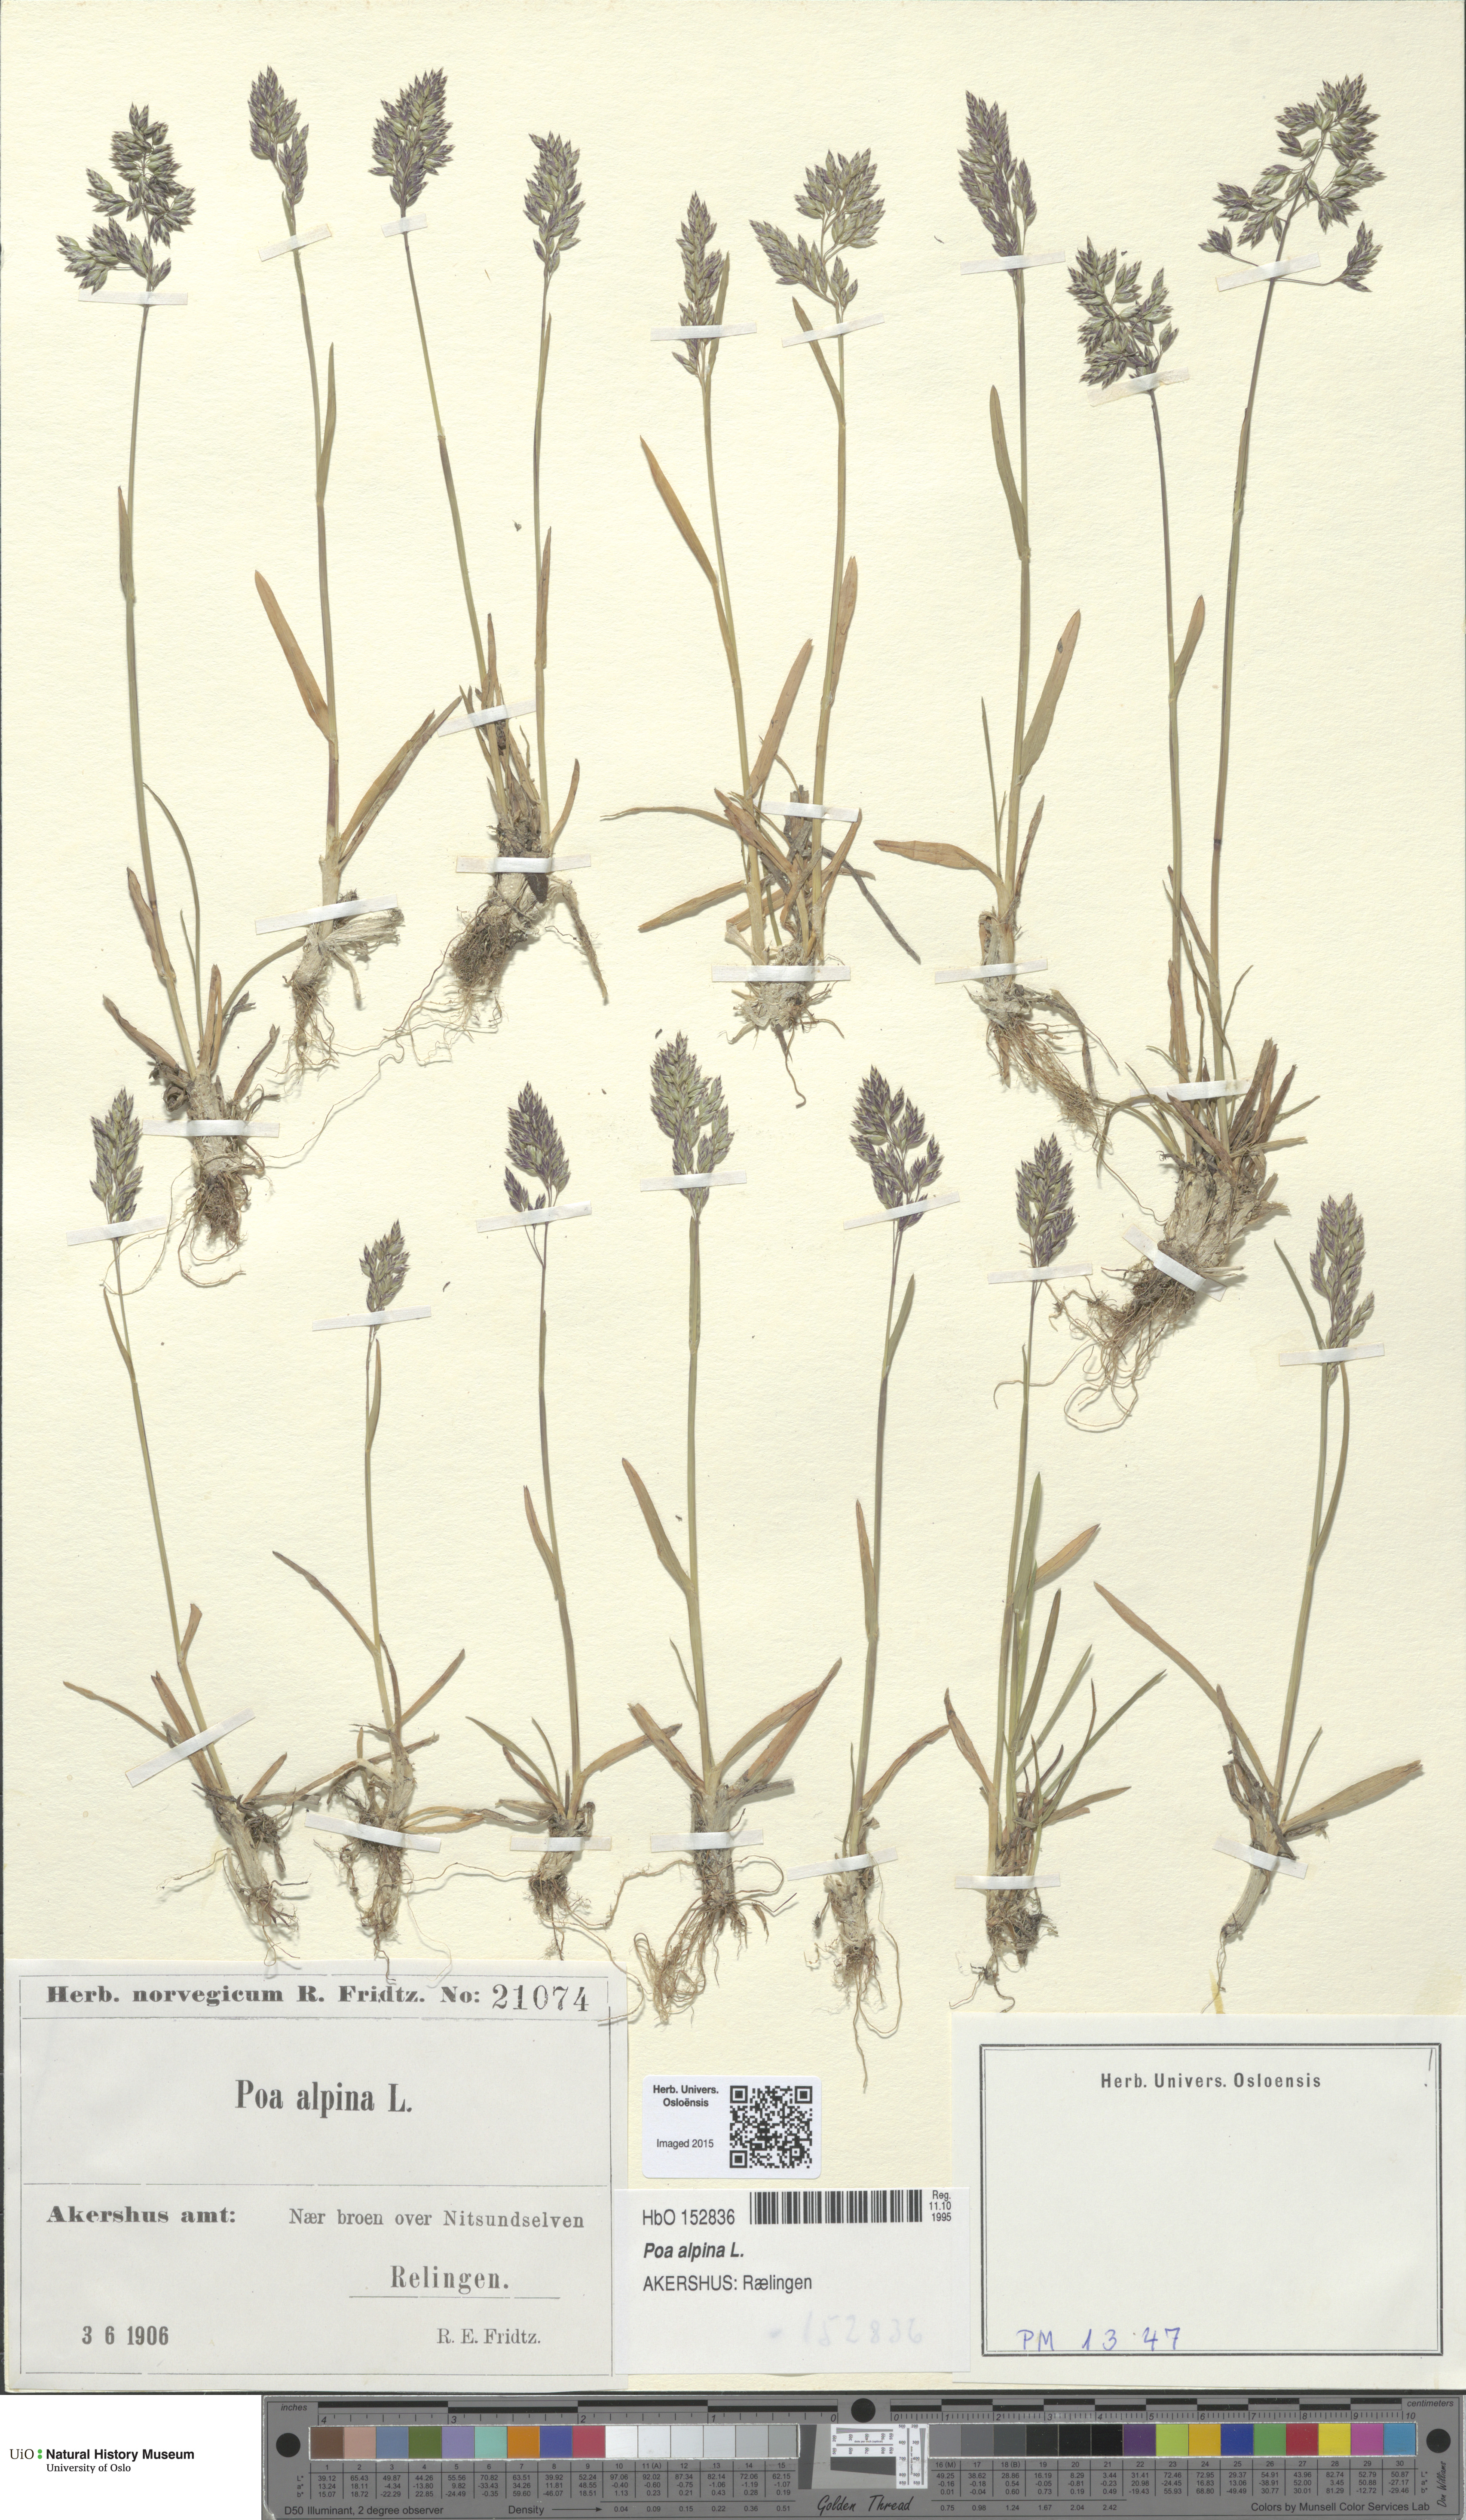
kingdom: Plantae
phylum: Tracheophyta
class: Liliopsida
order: Poales
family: Poaceae
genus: Poa
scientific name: Poa alpina
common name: Alpine bluegrass
